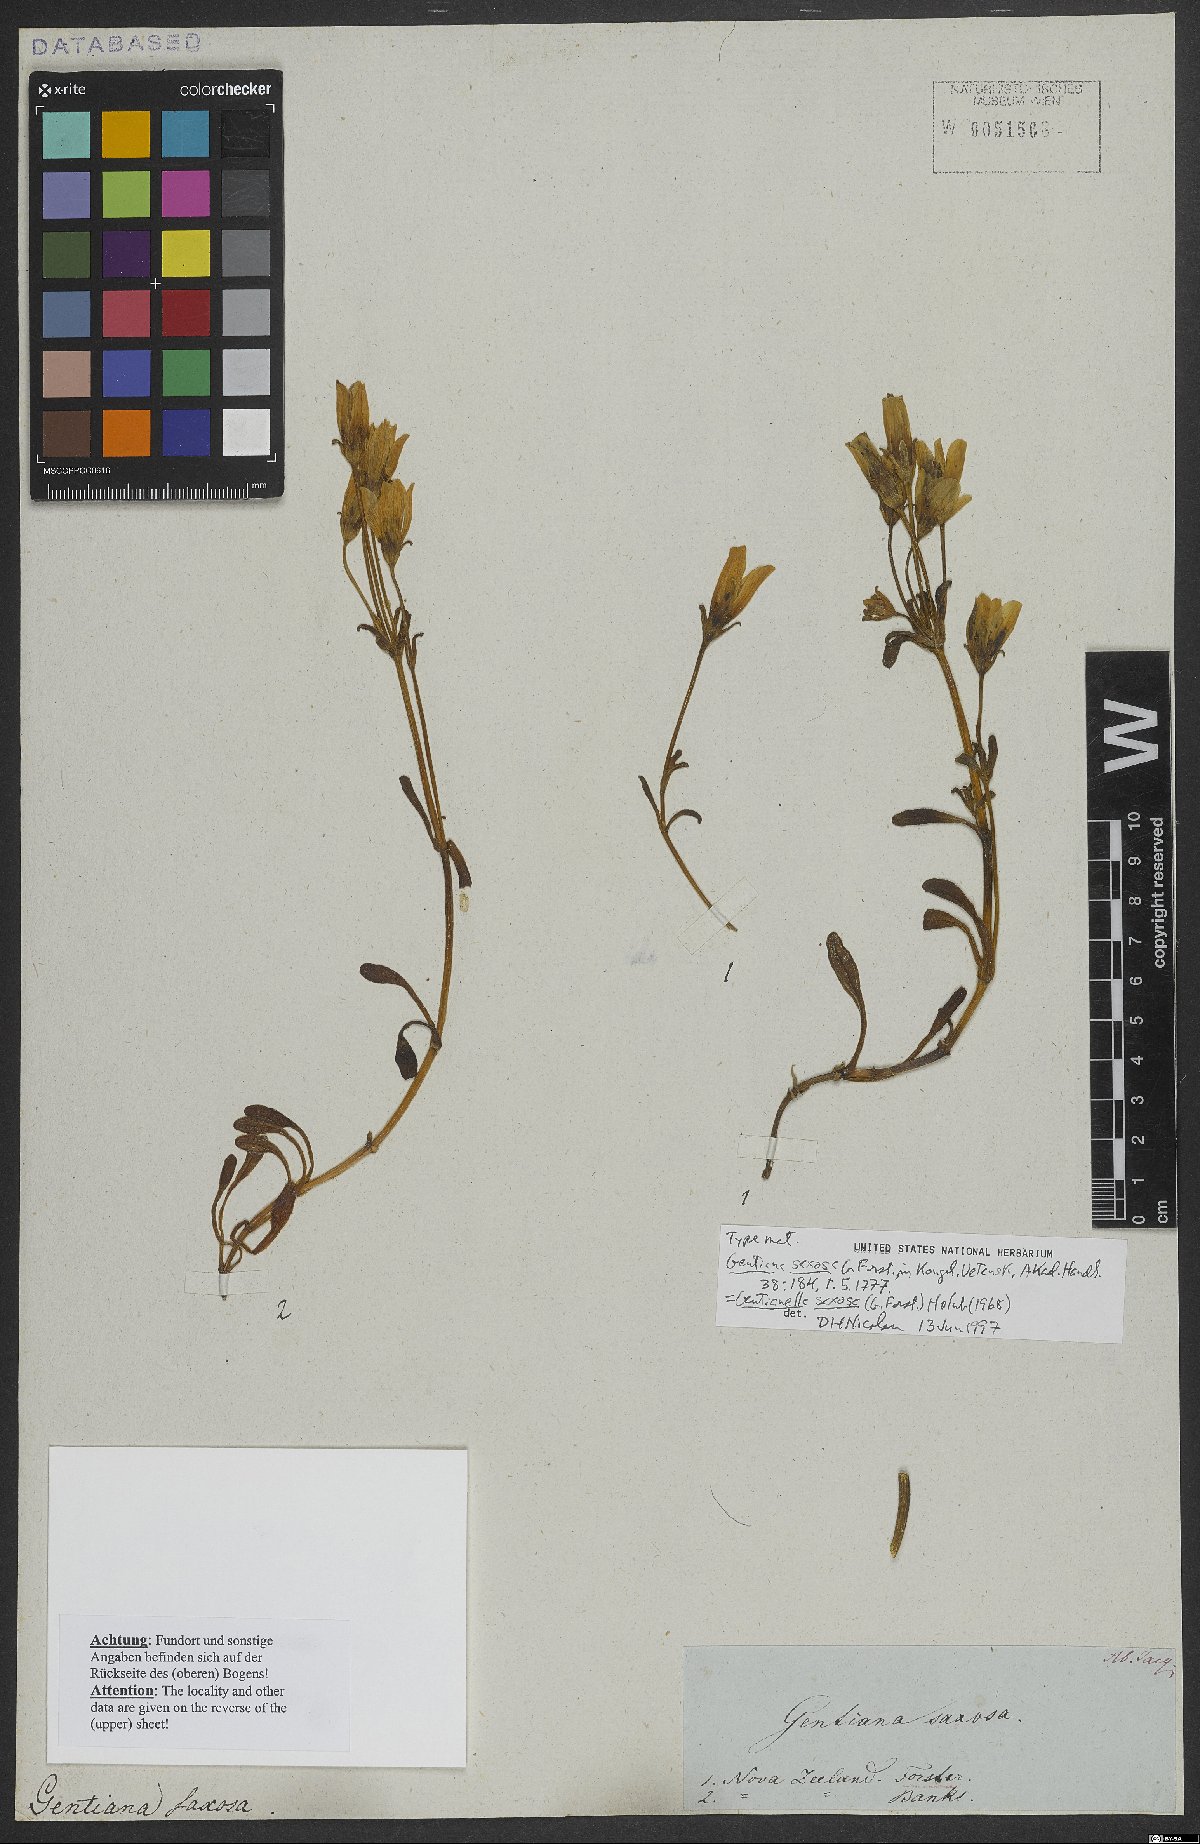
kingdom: Plantae
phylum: Tracheophyta
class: Magnoliopsida
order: Gentianales
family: Gentianaceae
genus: Gentianella
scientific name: Gentianella saxosa
